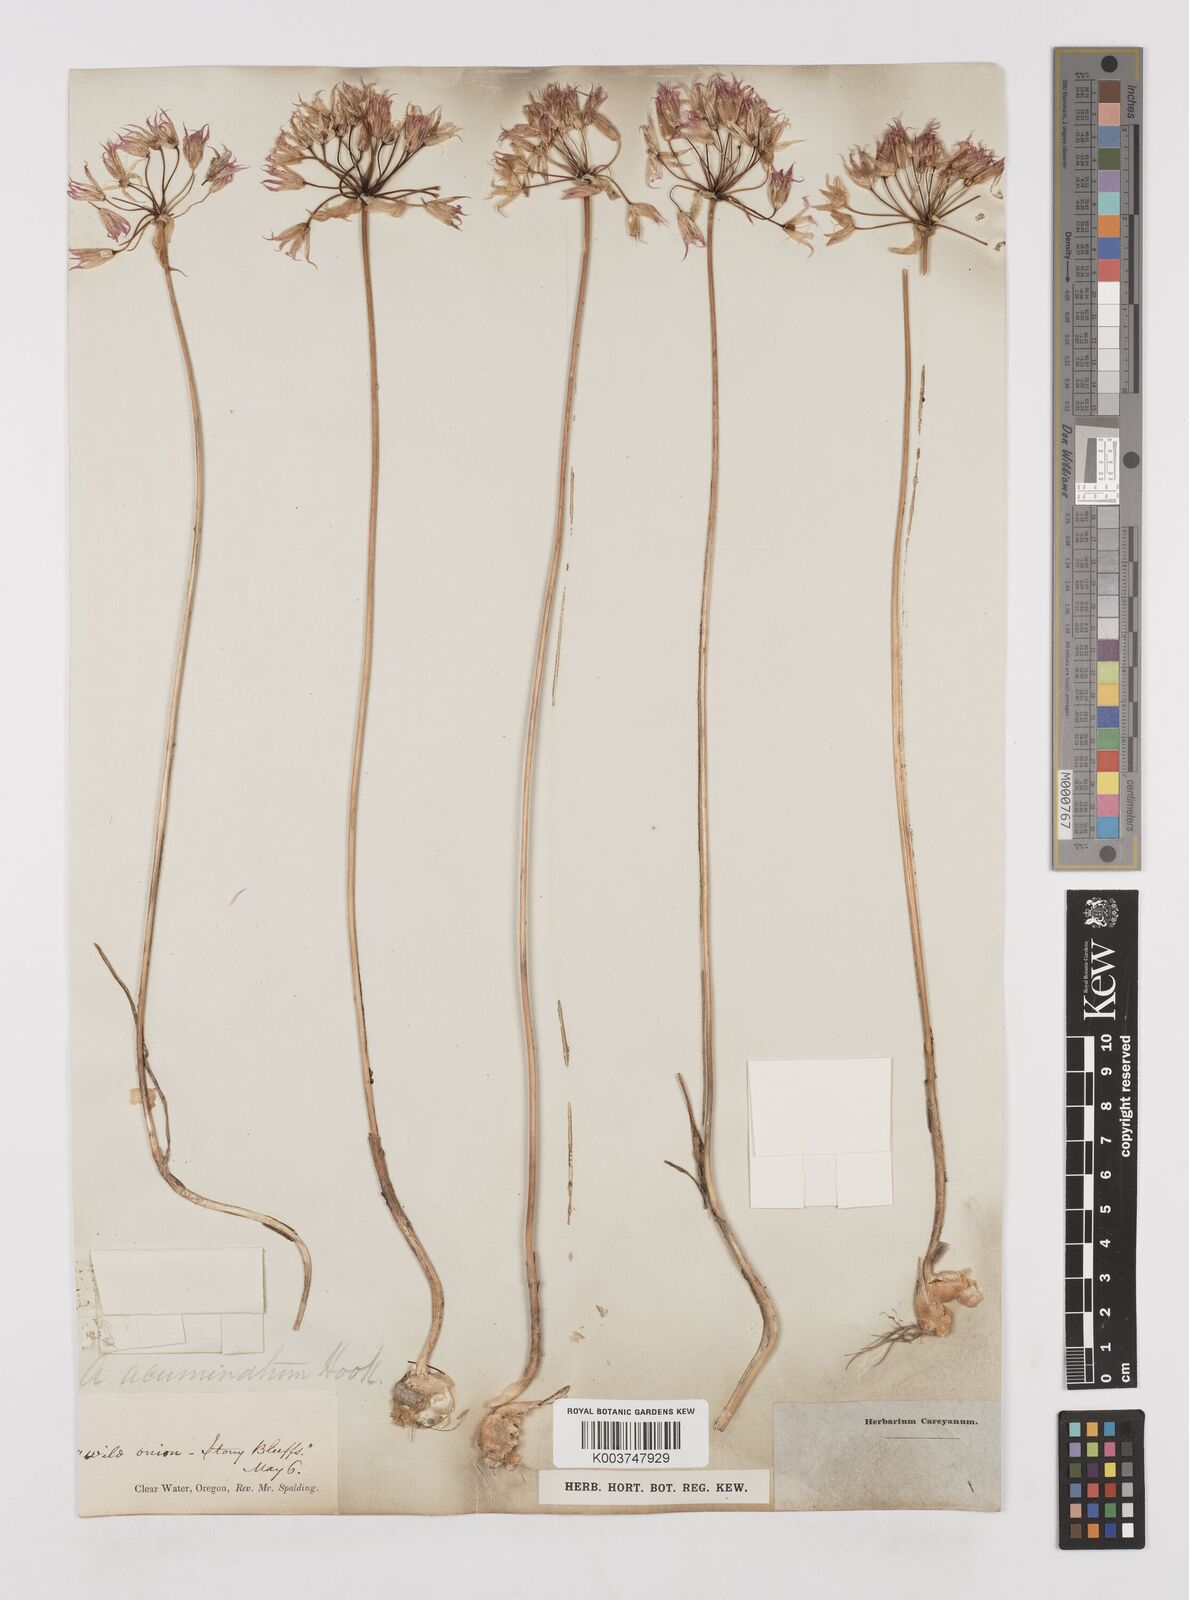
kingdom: Plantae
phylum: Tracheophyta
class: Liliopsida
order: Asparagales
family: Amaryllidaceae
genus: Allium
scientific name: Allium acuminatum
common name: Hooker's onion
